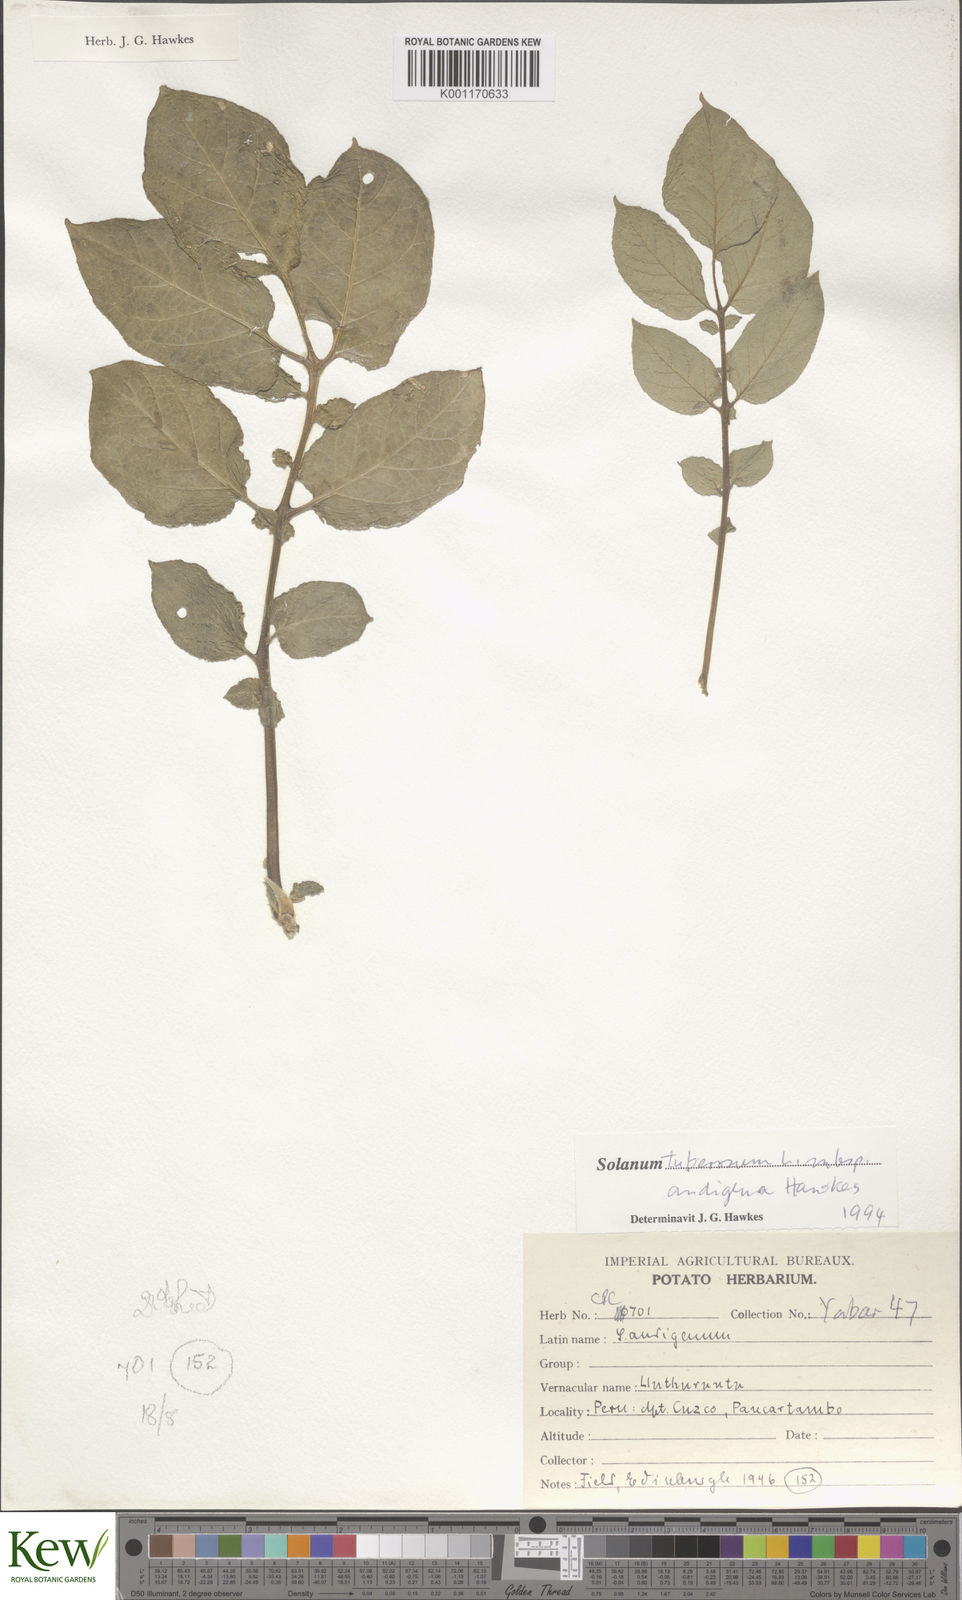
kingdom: Plantae
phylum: Tracheophyta
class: Magnoliopsida
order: Solanales
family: Solanaceae
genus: Solanum
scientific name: Solanum tuberosum
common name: Potato
